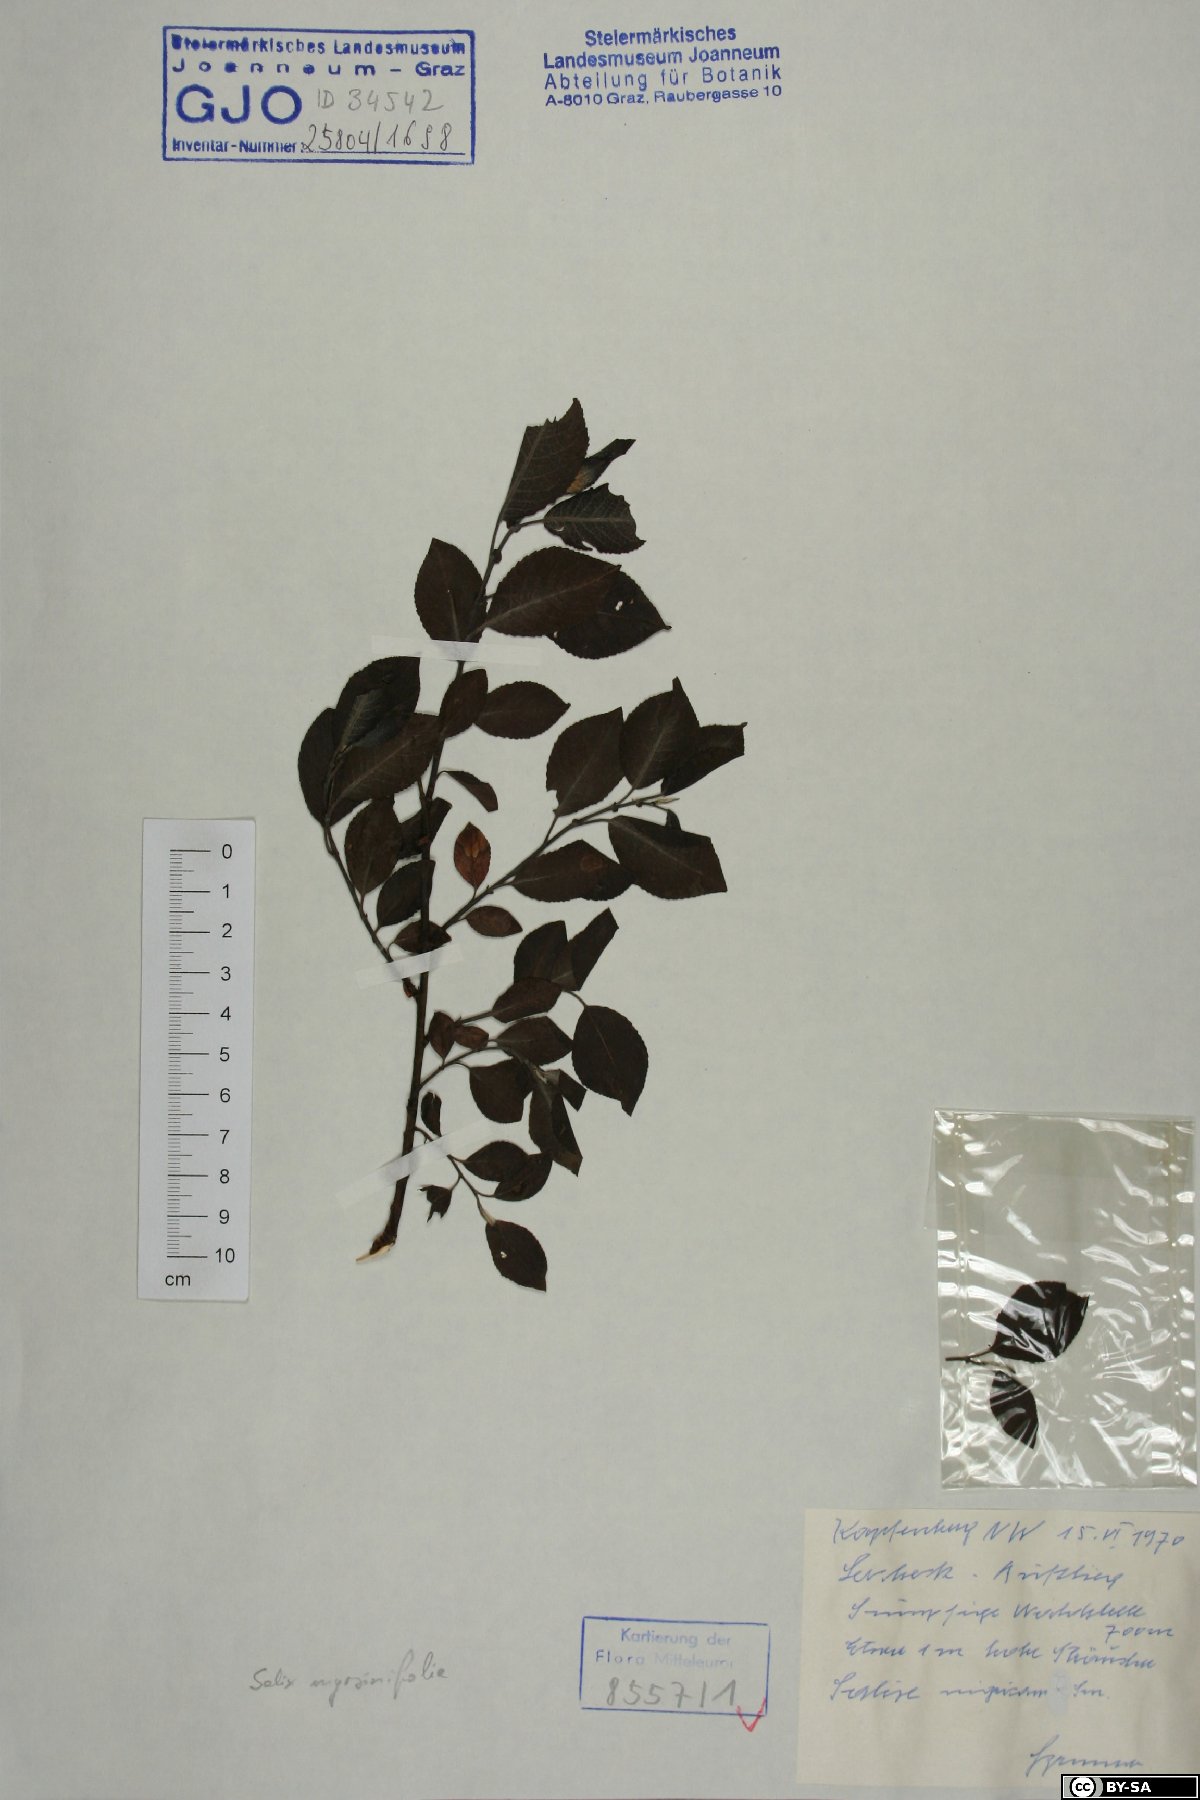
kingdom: Plantae
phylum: Tracheophyta
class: Magnoliopsida
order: Malpighiales
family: Salicaceae
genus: Salix
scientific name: Salix myrsinifolia
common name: Dark-leaved willow
